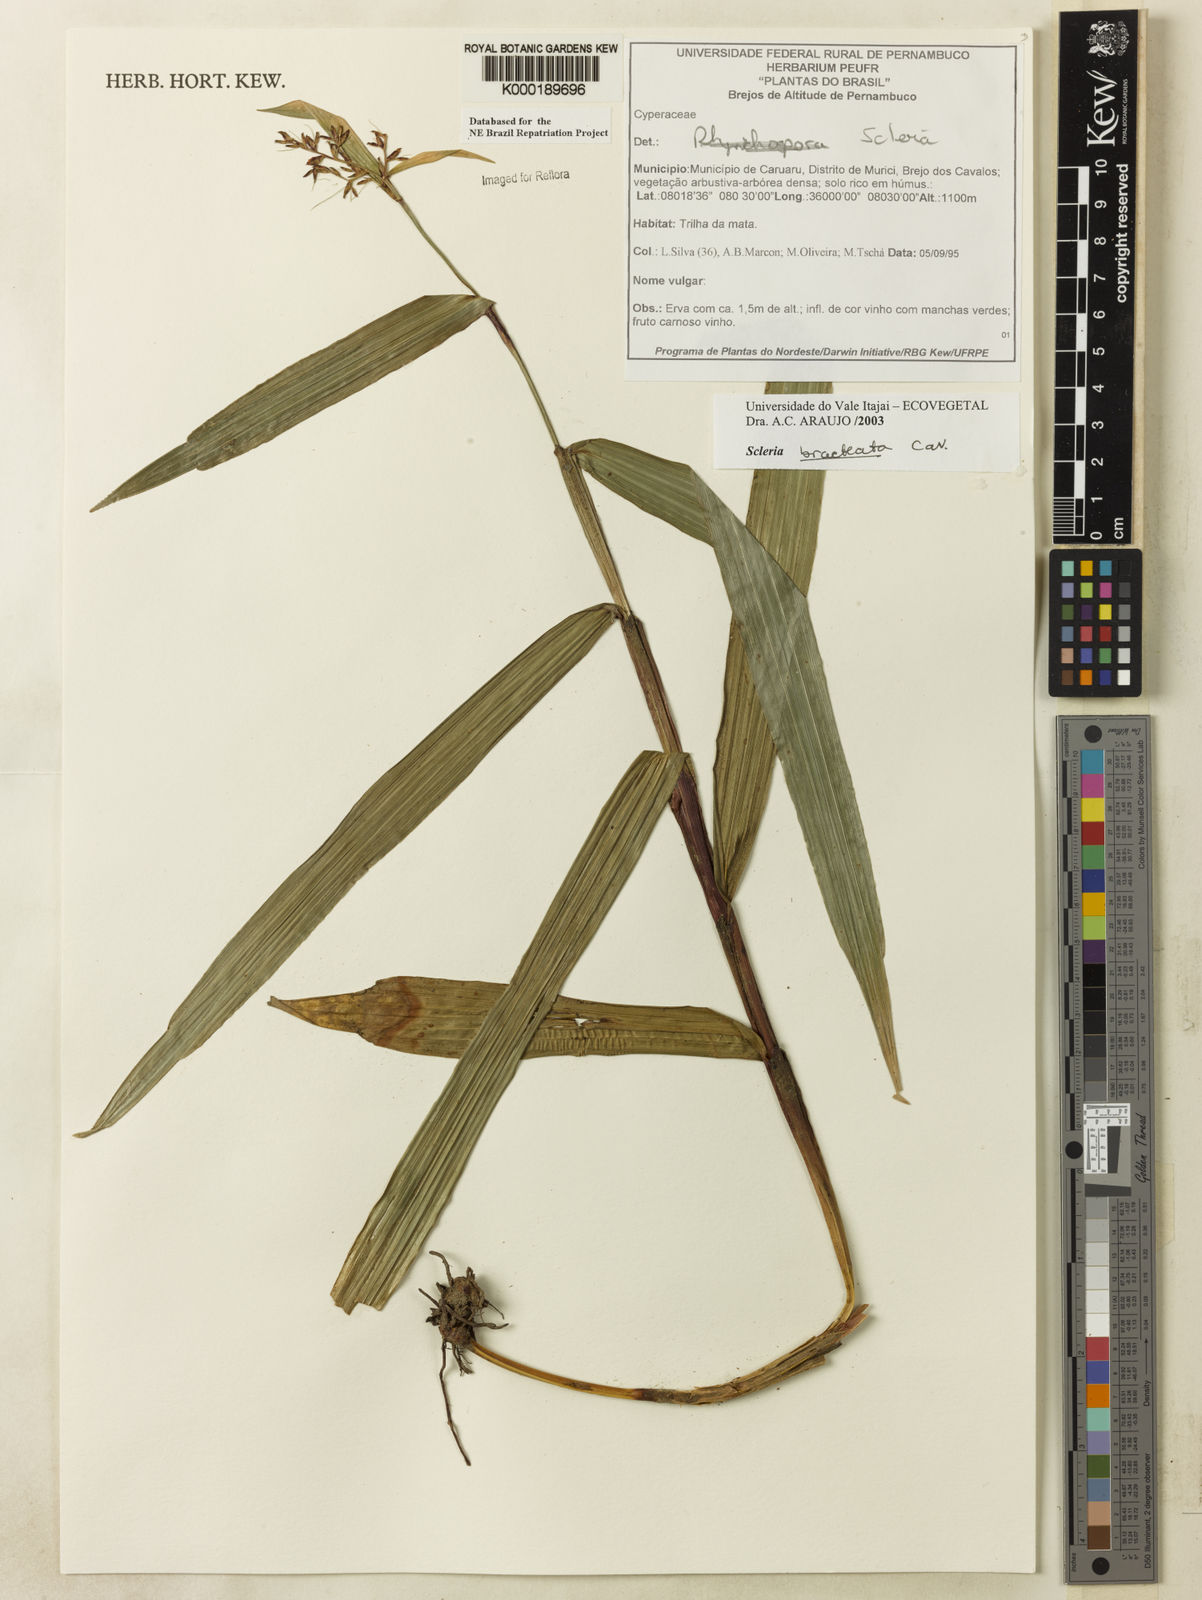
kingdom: Plantae
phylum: Tracheophyta
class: Liliopsida
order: Poales
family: Cyperaceae
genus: Scleria
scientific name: Scleria bracteata
